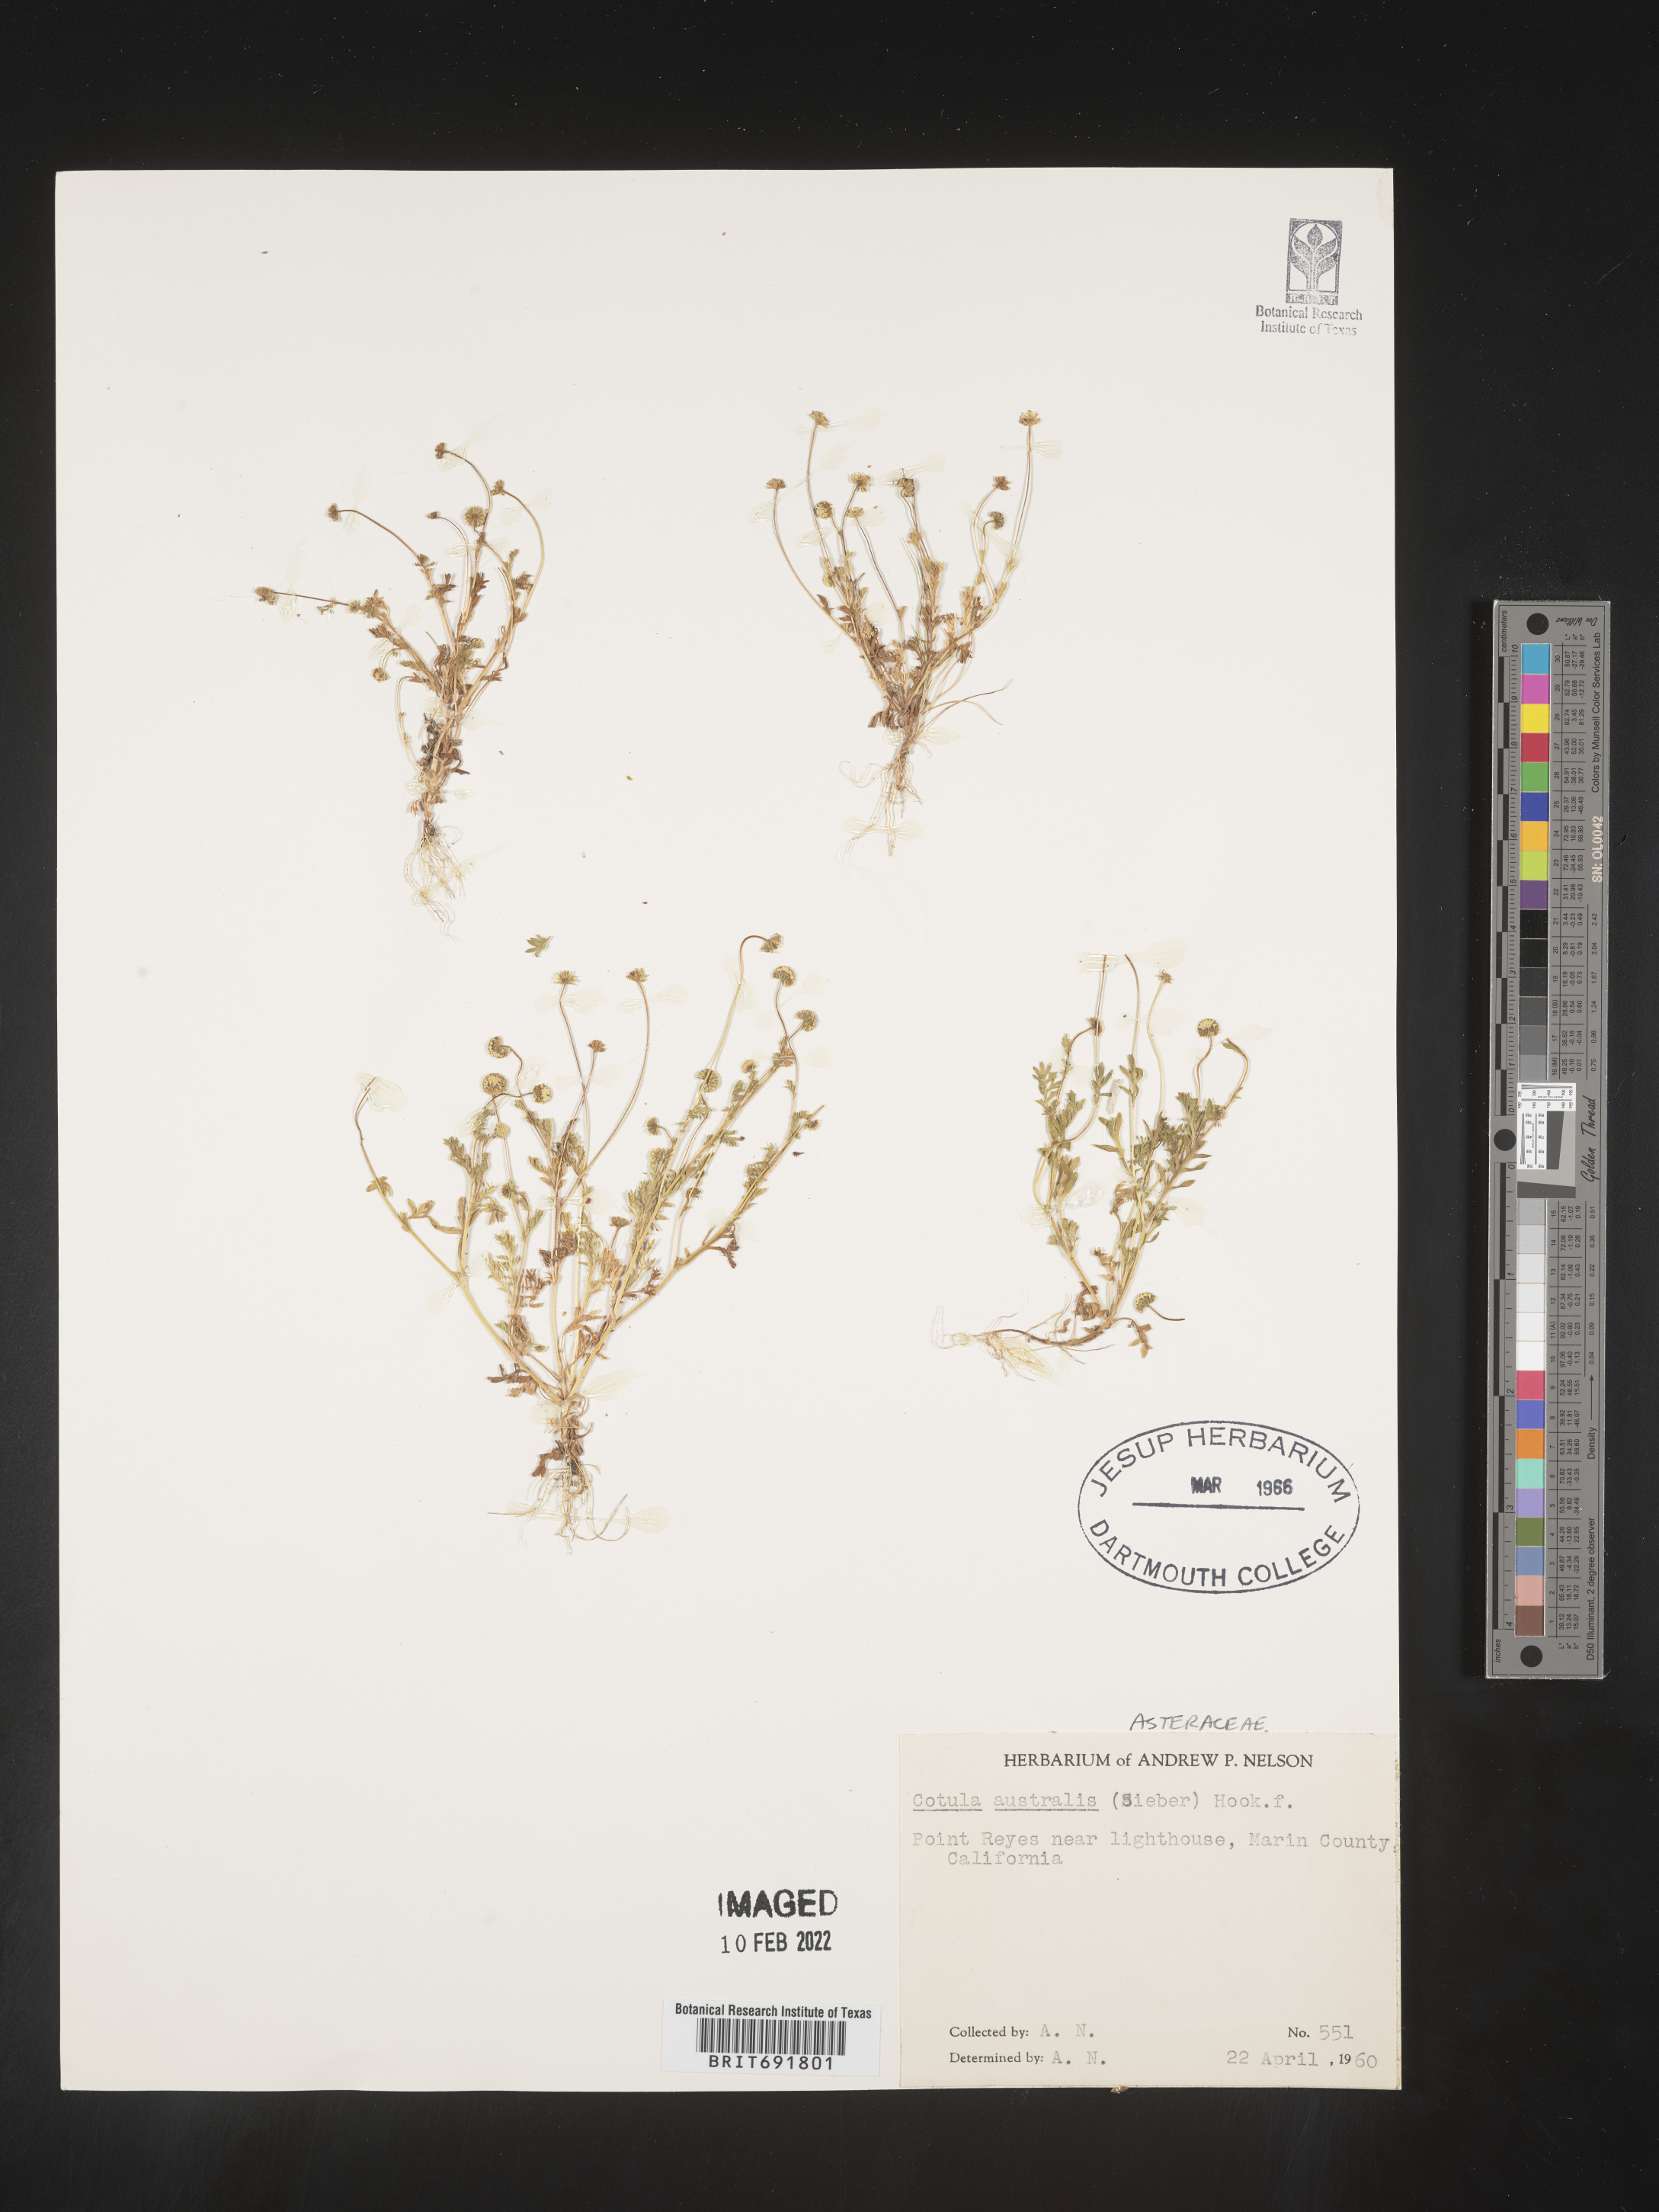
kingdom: Plantae
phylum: Tracheophyta
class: Magnoliopsida
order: Asterales
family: Asteraceae
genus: Cotula
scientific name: Cotula
